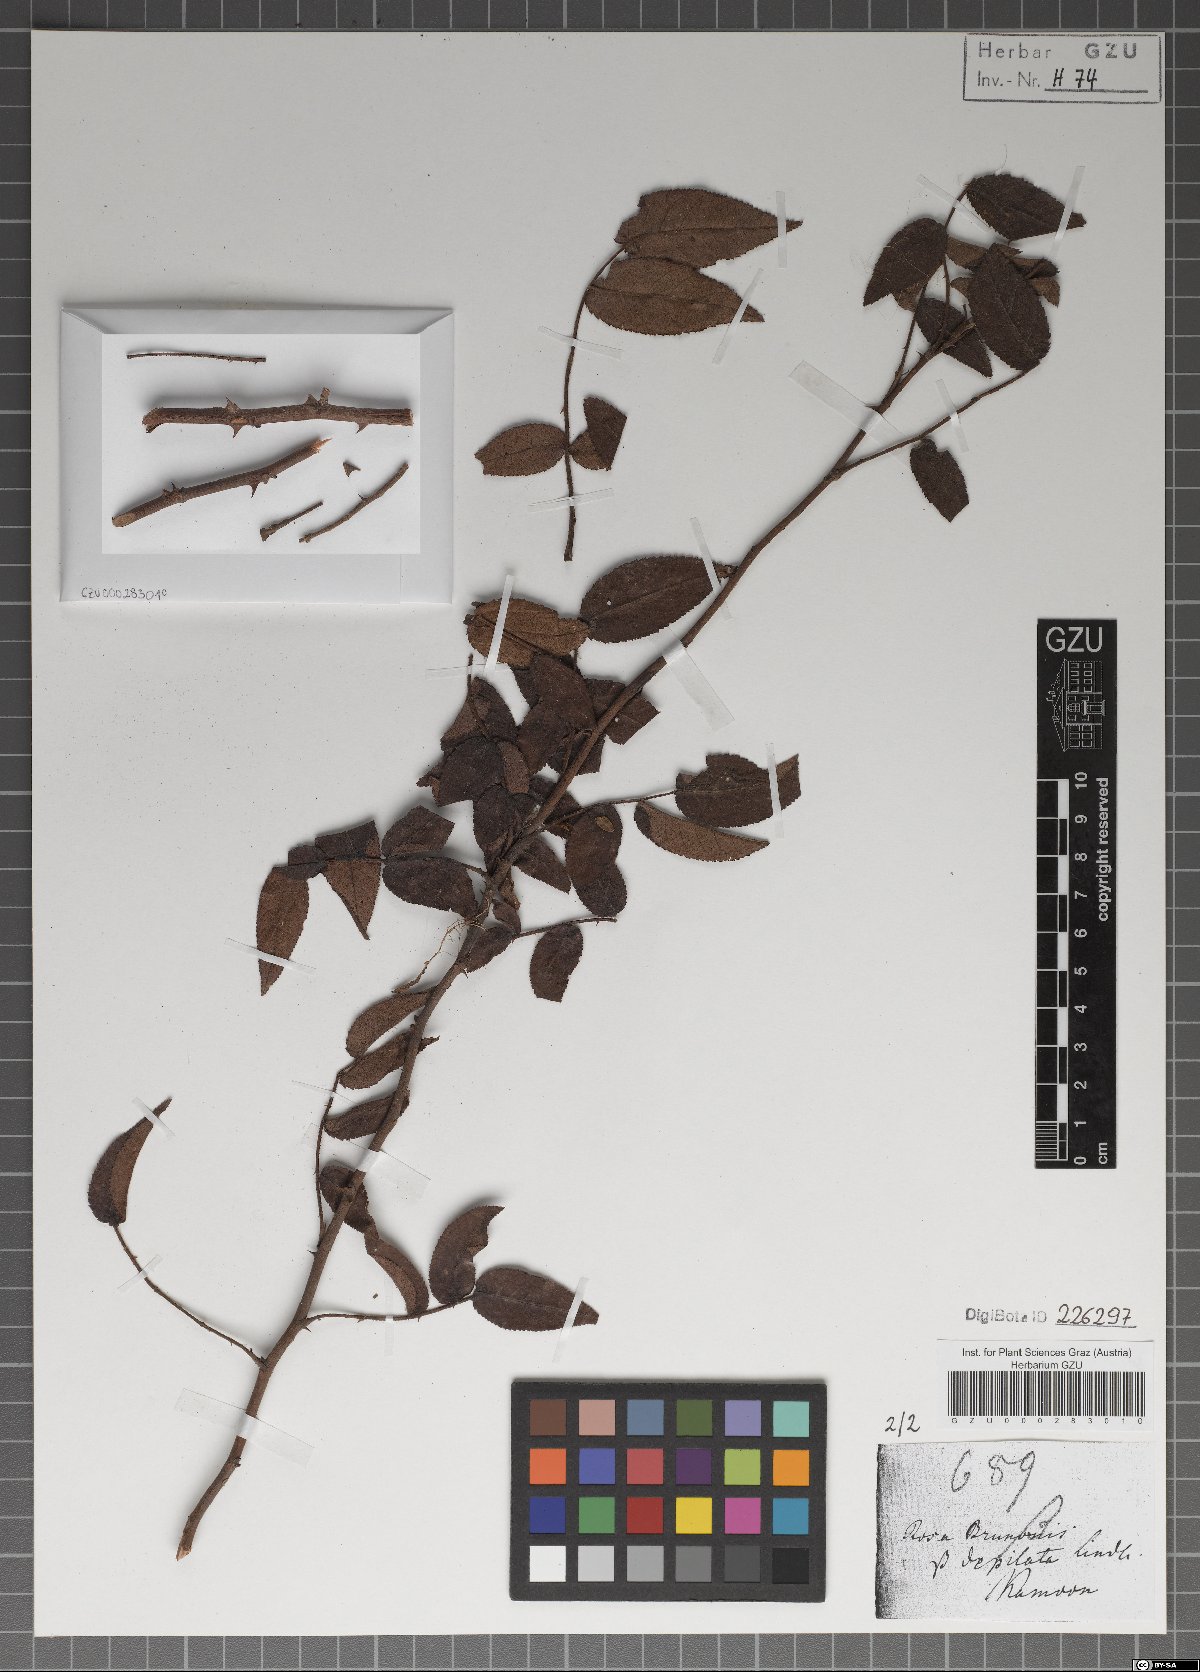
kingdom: Plantae
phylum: Tracheophyta
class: Magnoliopsida
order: Rosales
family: Rosaceae
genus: Rosa
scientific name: Rosa brunonii
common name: Himalayan musk rose
